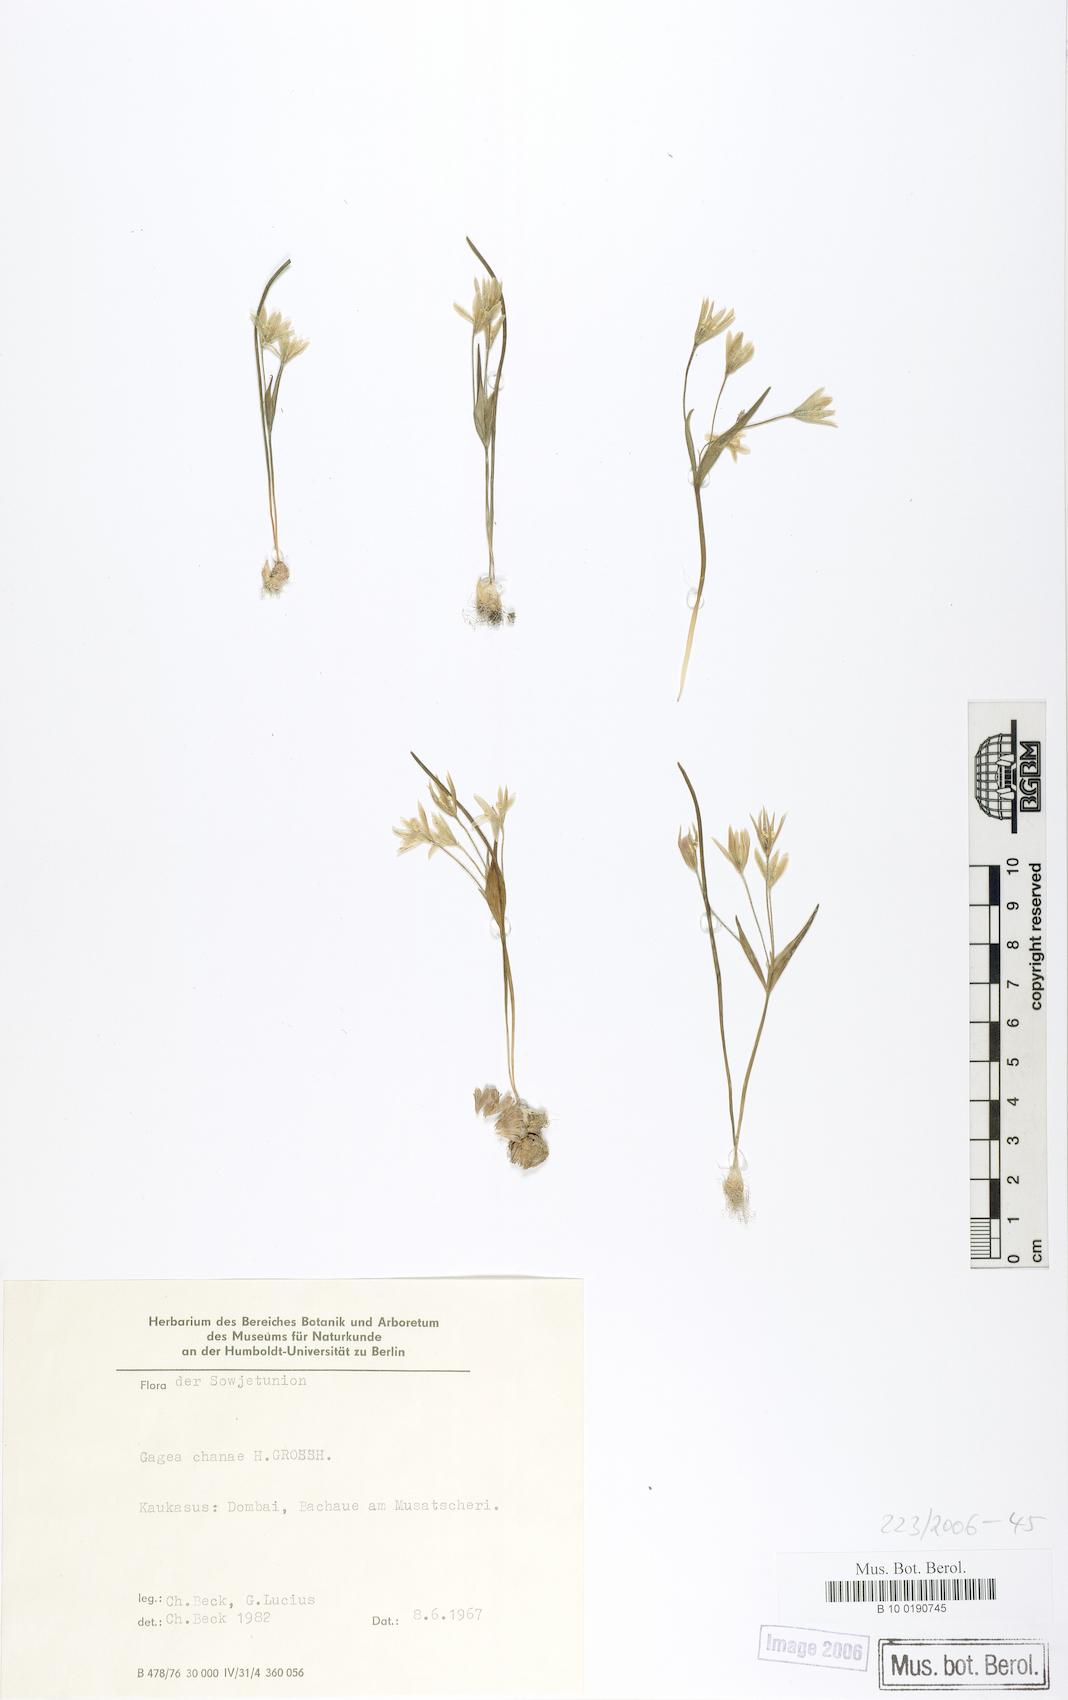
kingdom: Plantae
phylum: Tracheophyta
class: Liliopsida
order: Liliales
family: Liliaceae
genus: Gagea
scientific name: Gagea chanae
